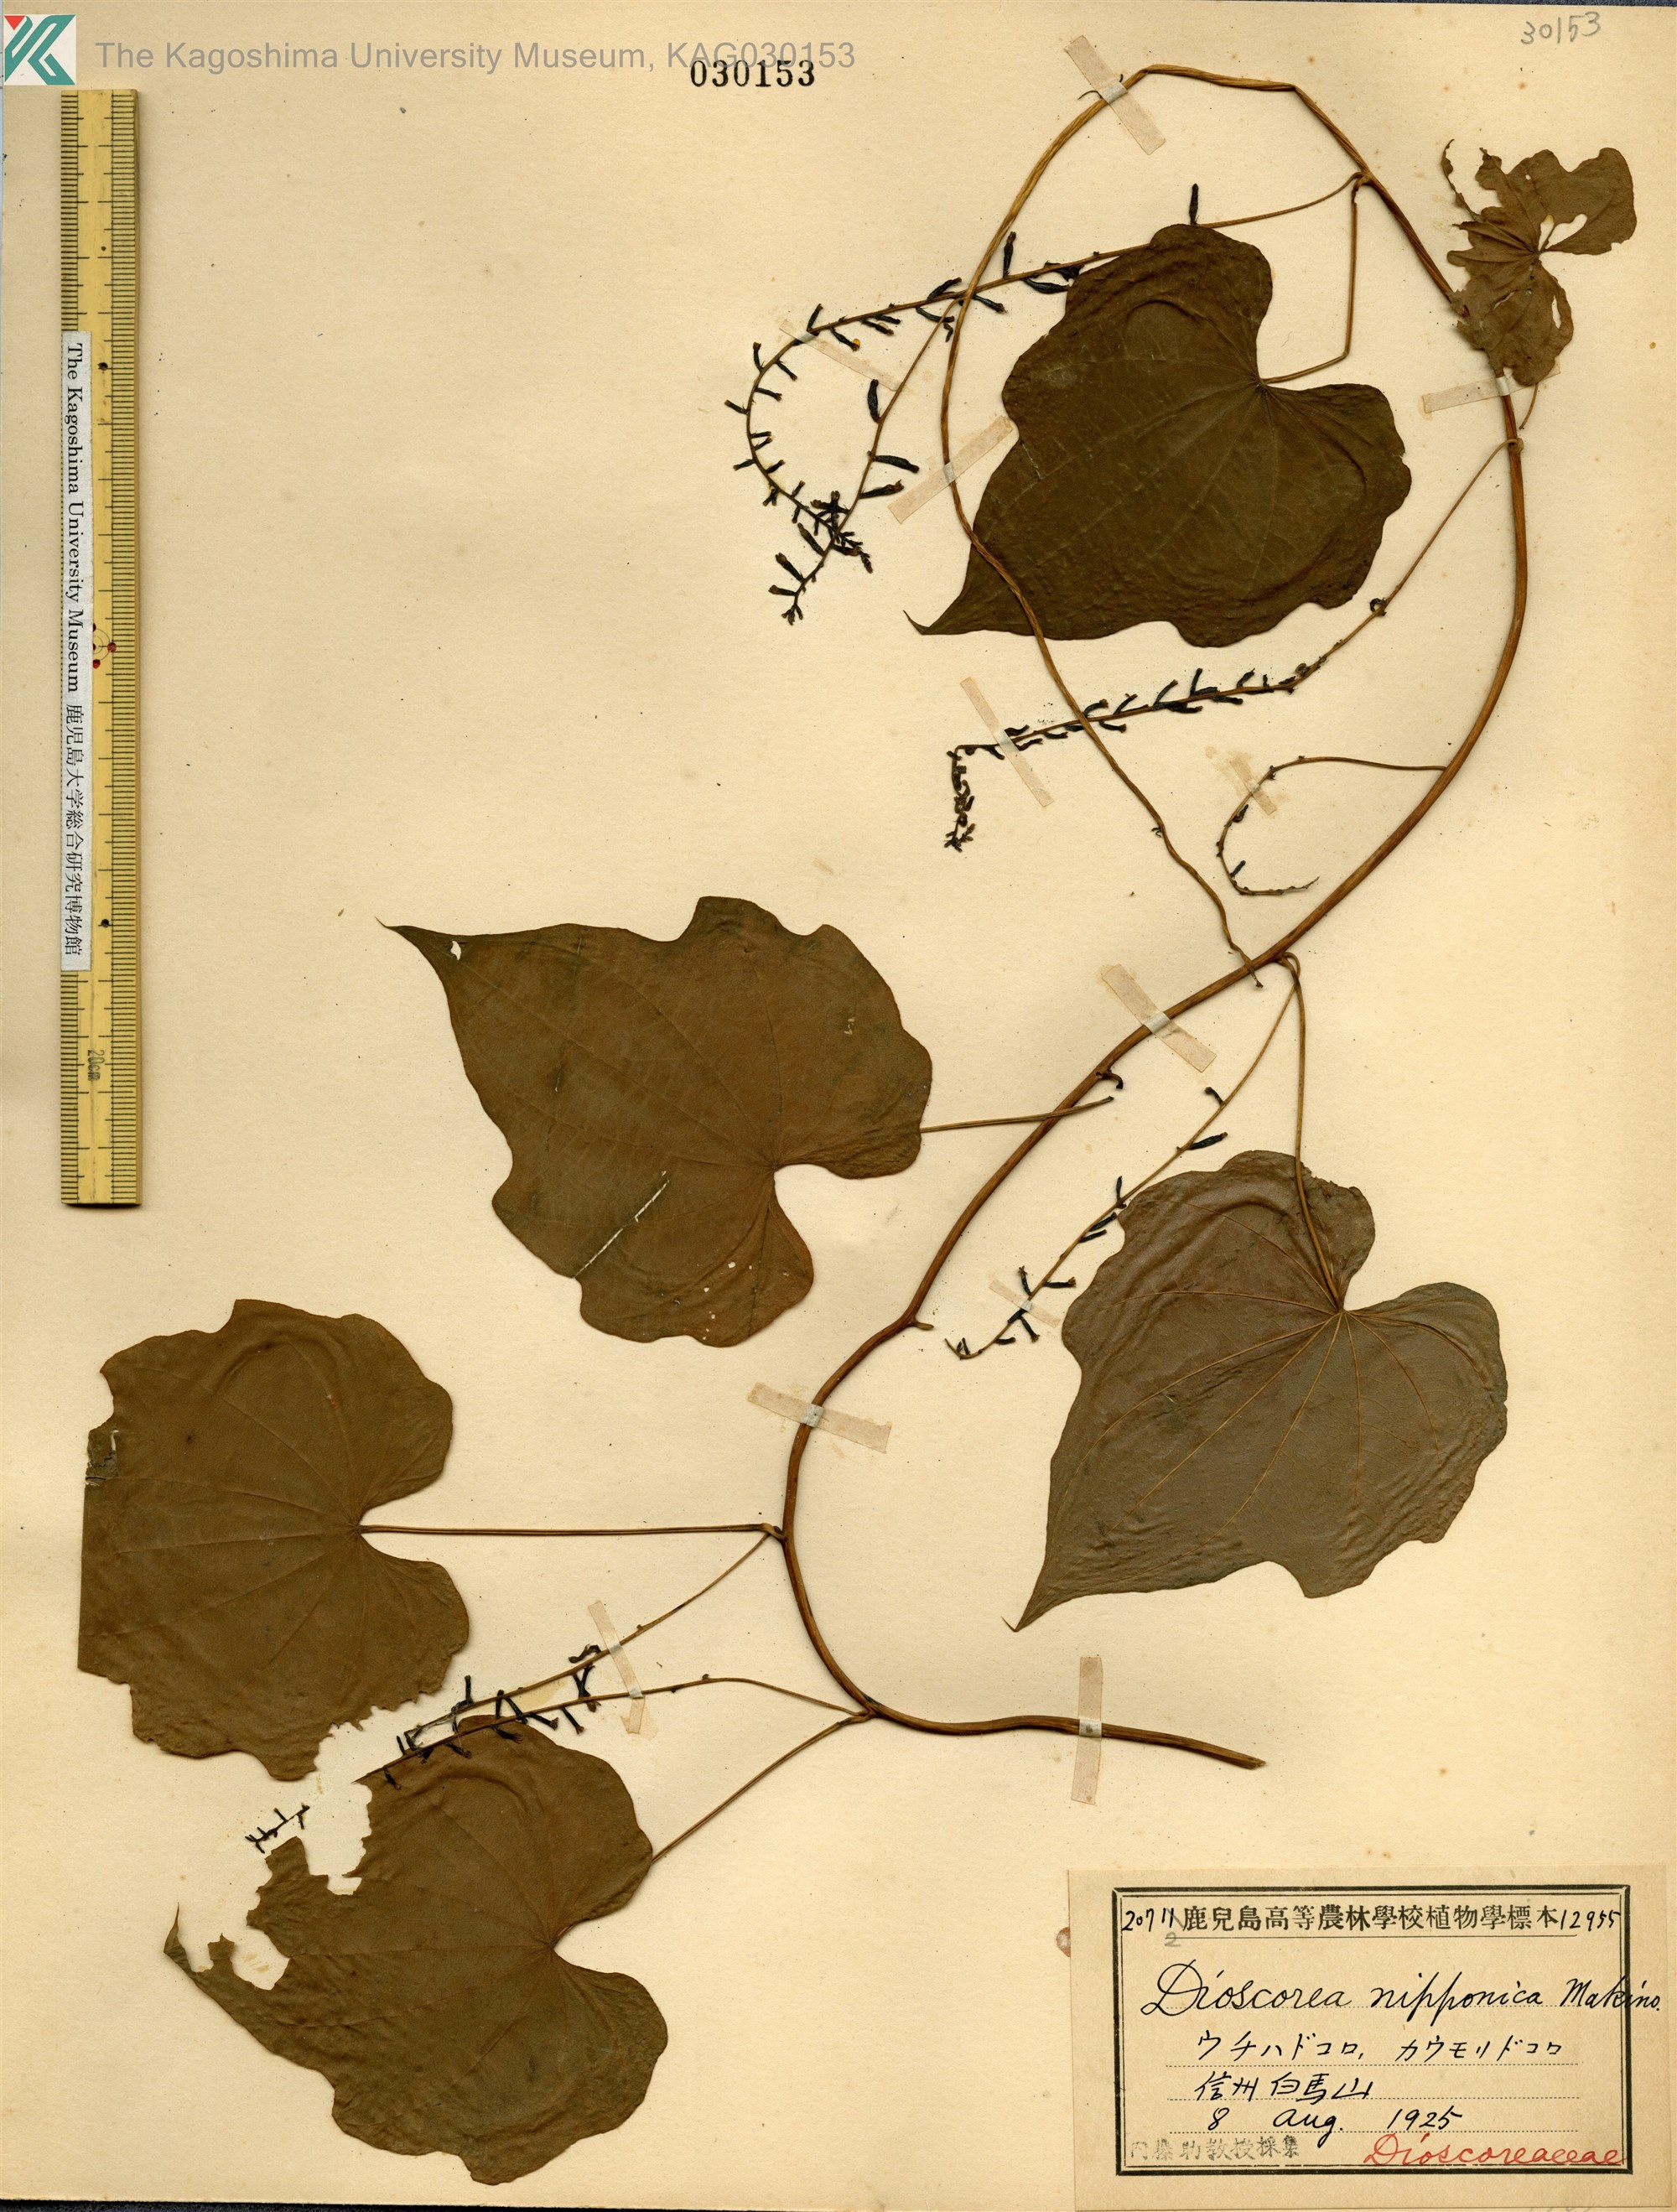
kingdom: Plantae
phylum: Tracheophyta
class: Liliopsida
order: Dioscoreales
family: Dioscoreaceae
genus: Dioscorea
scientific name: Dioscorea nipponica
